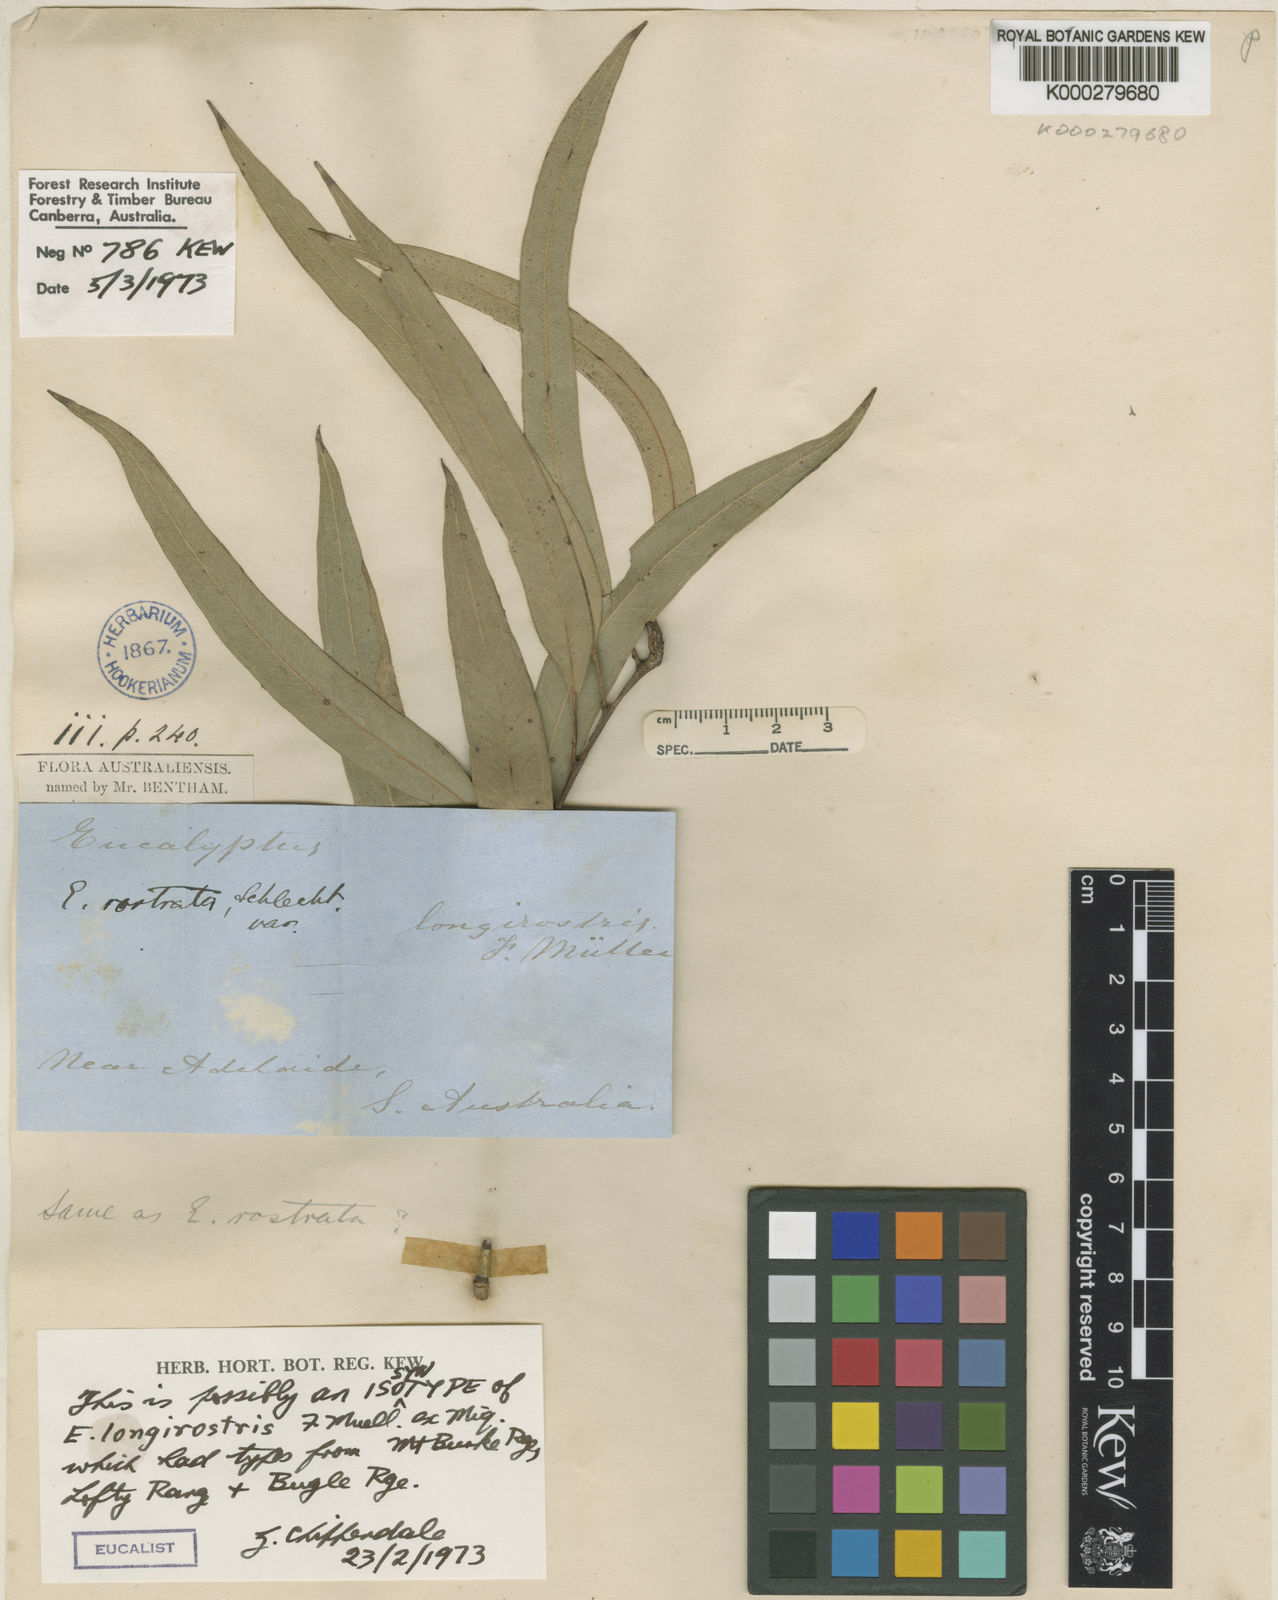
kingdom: Plantae
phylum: Tracheophyta
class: Magnoliopsida
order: Myrtales
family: Myrtaceae
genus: Eucalyptus
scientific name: Eucalyptus camaldulensis
